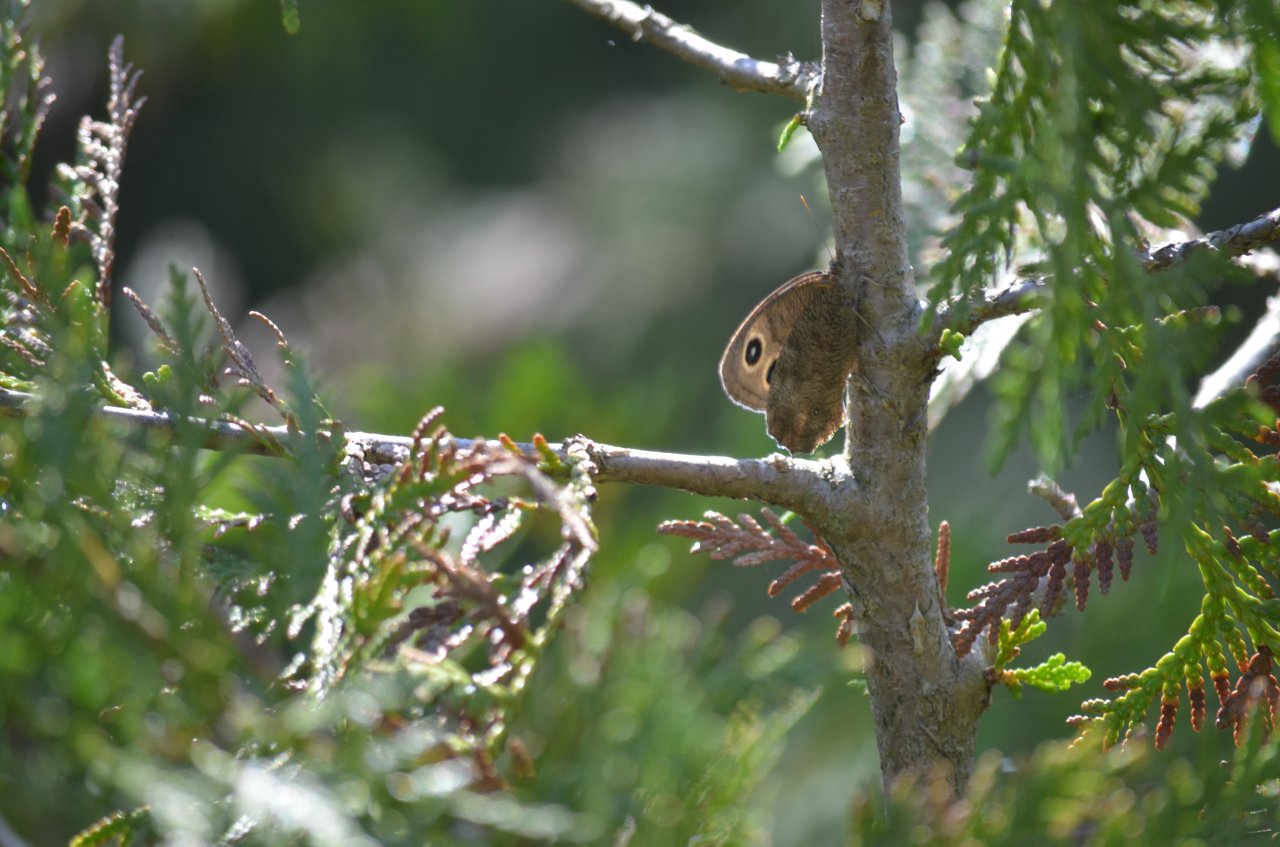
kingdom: Animalia
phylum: Arthropoda
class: Insecta
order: Lepidoptera
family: Nymphalidae
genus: Cercyonis
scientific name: Cercyonis pegala
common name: Common Wood-Nymph
